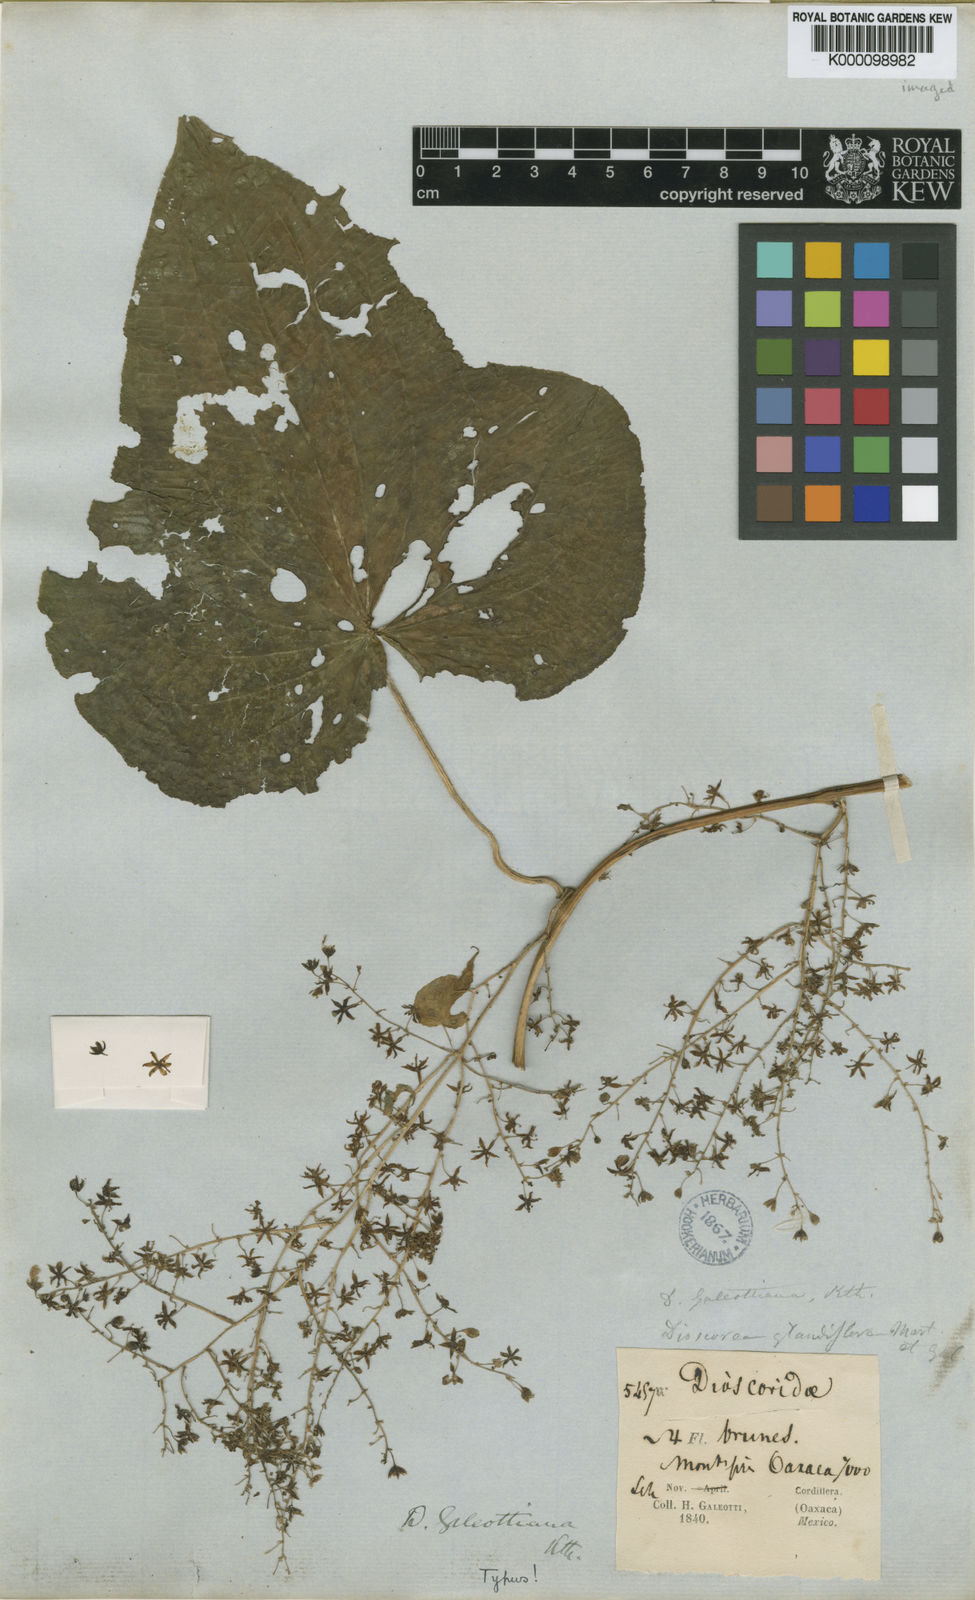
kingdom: Plantae
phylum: Tracheophyta
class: Liliopsida
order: Dioscoreales
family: Dioscoreaceae
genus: Dioscorea
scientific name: Dioscorea galeottiana
